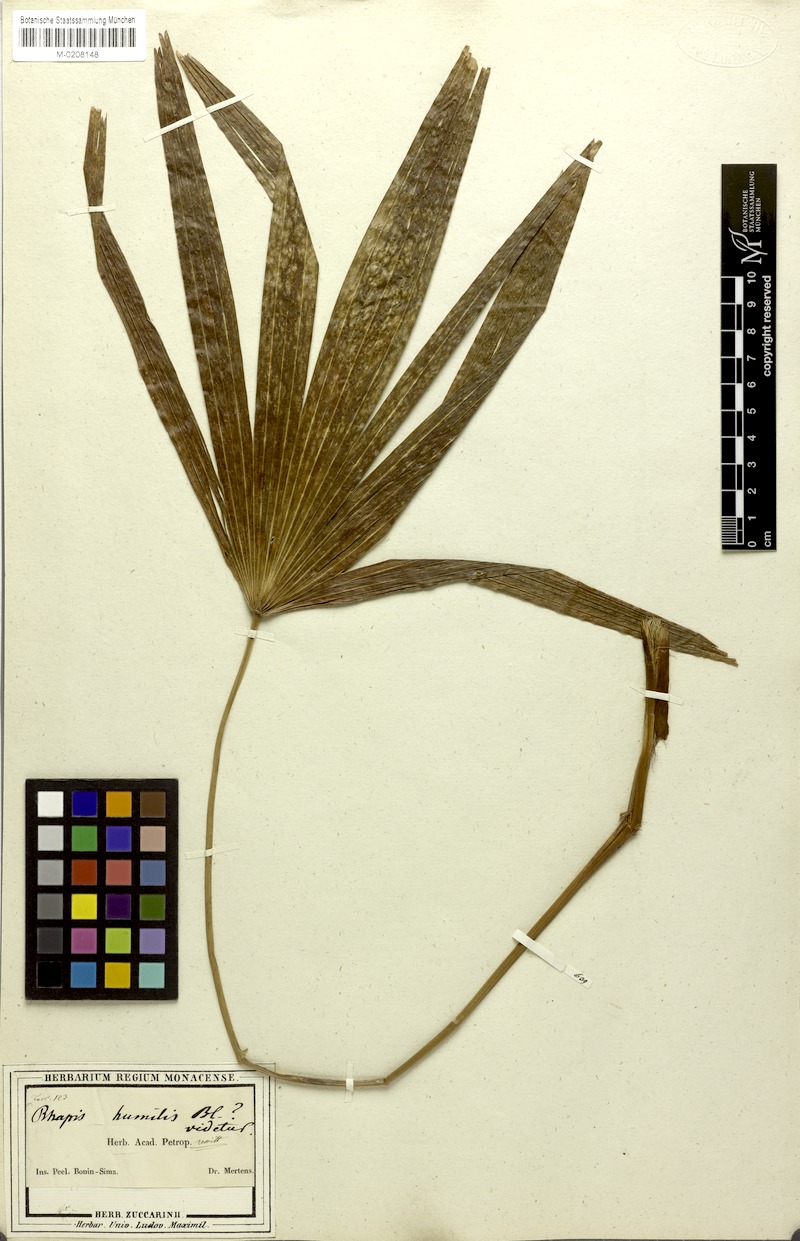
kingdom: Plantae
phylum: Tracheophyta
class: Liliopsida
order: Arecales
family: Arecaceae
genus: Rhapis
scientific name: Rhapis humilis
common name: Reed rhapis
